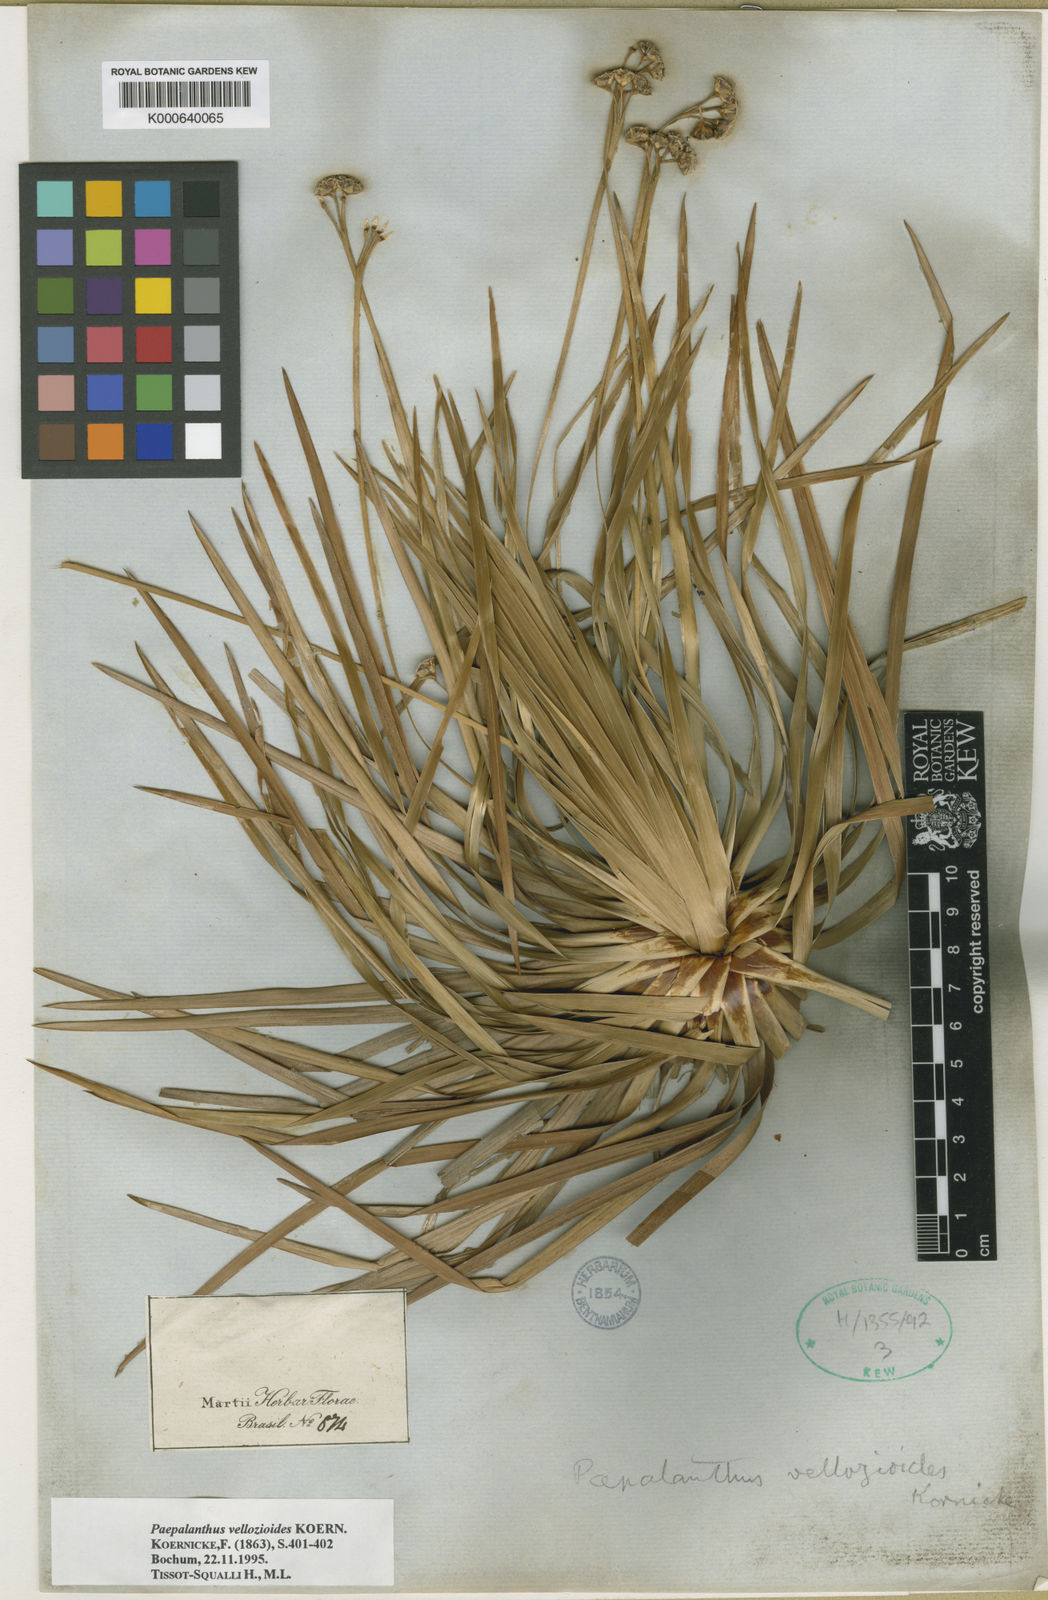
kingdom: Plantae
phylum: Tracheophyta
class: Liliopsida
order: Poales
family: Eriocaulaceae
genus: Paepalanthus
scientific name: Paepalanthus
